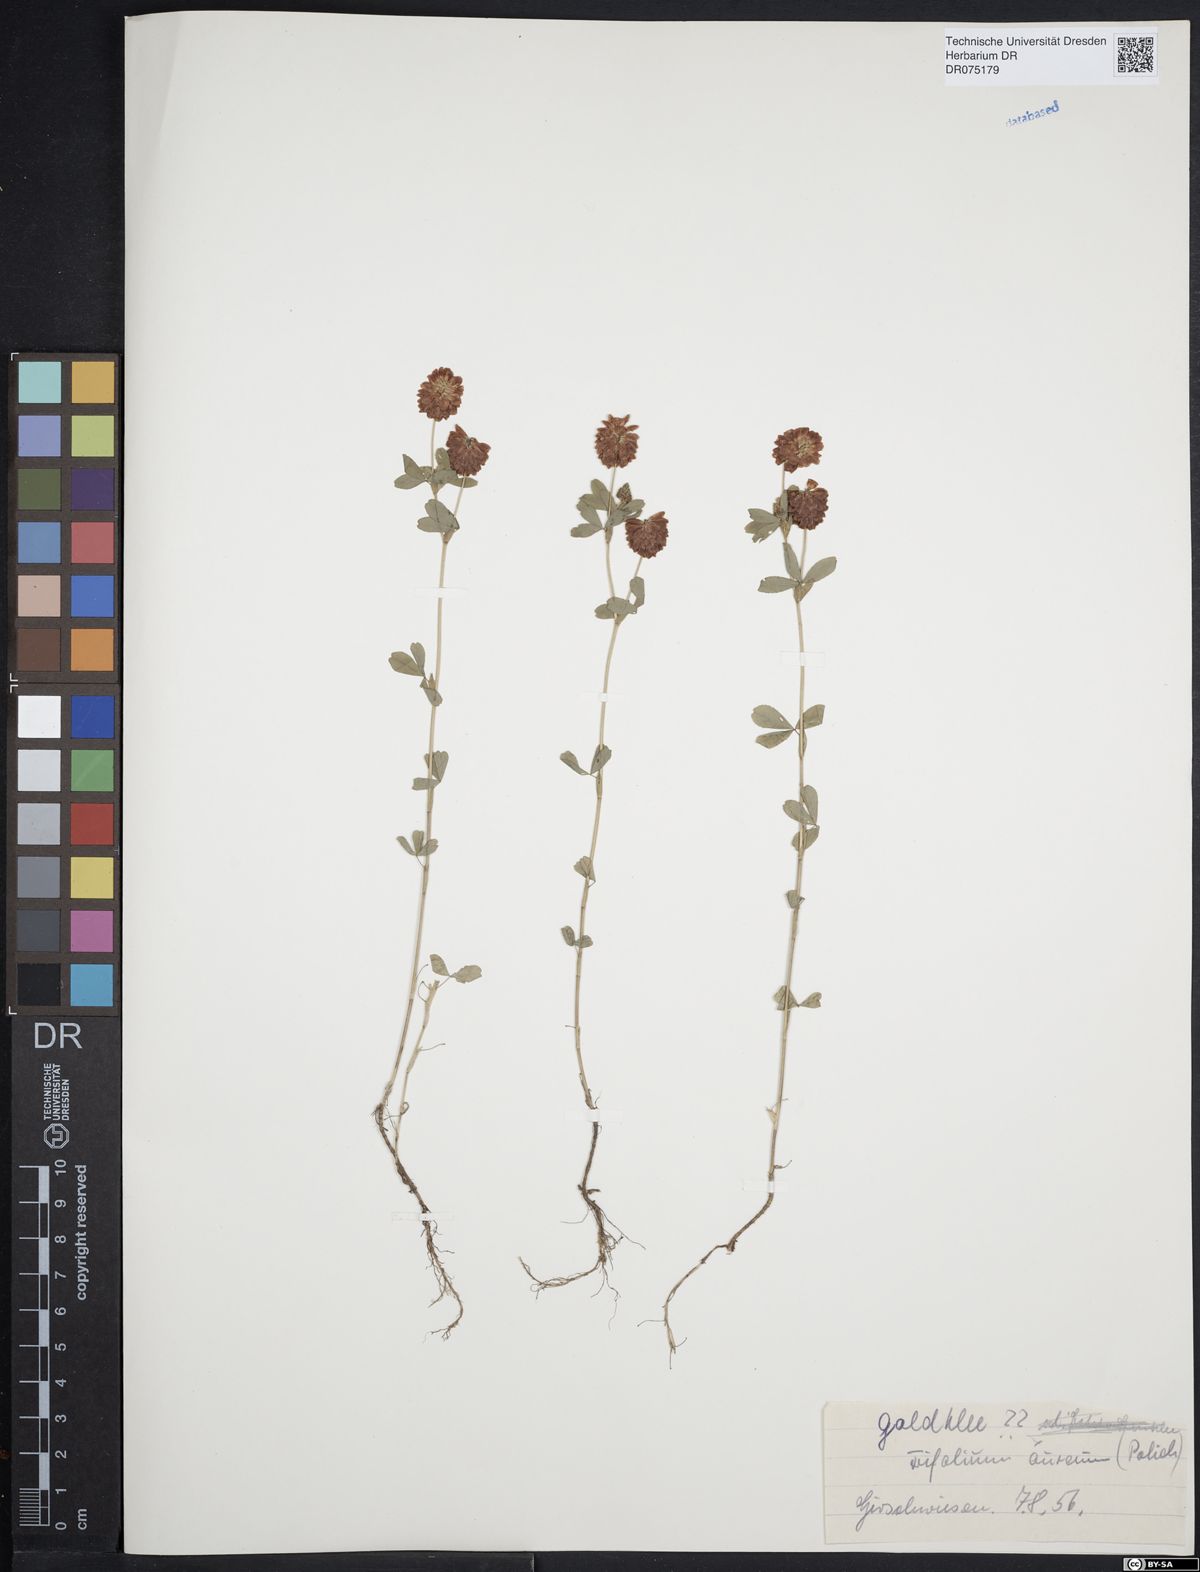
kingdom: Plantae
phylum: Tracheophyta
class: Magnoliopsida
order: Fabales
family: Fabaceae
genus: Trifolium
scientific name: Trifolium aureum
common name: Golden clover
